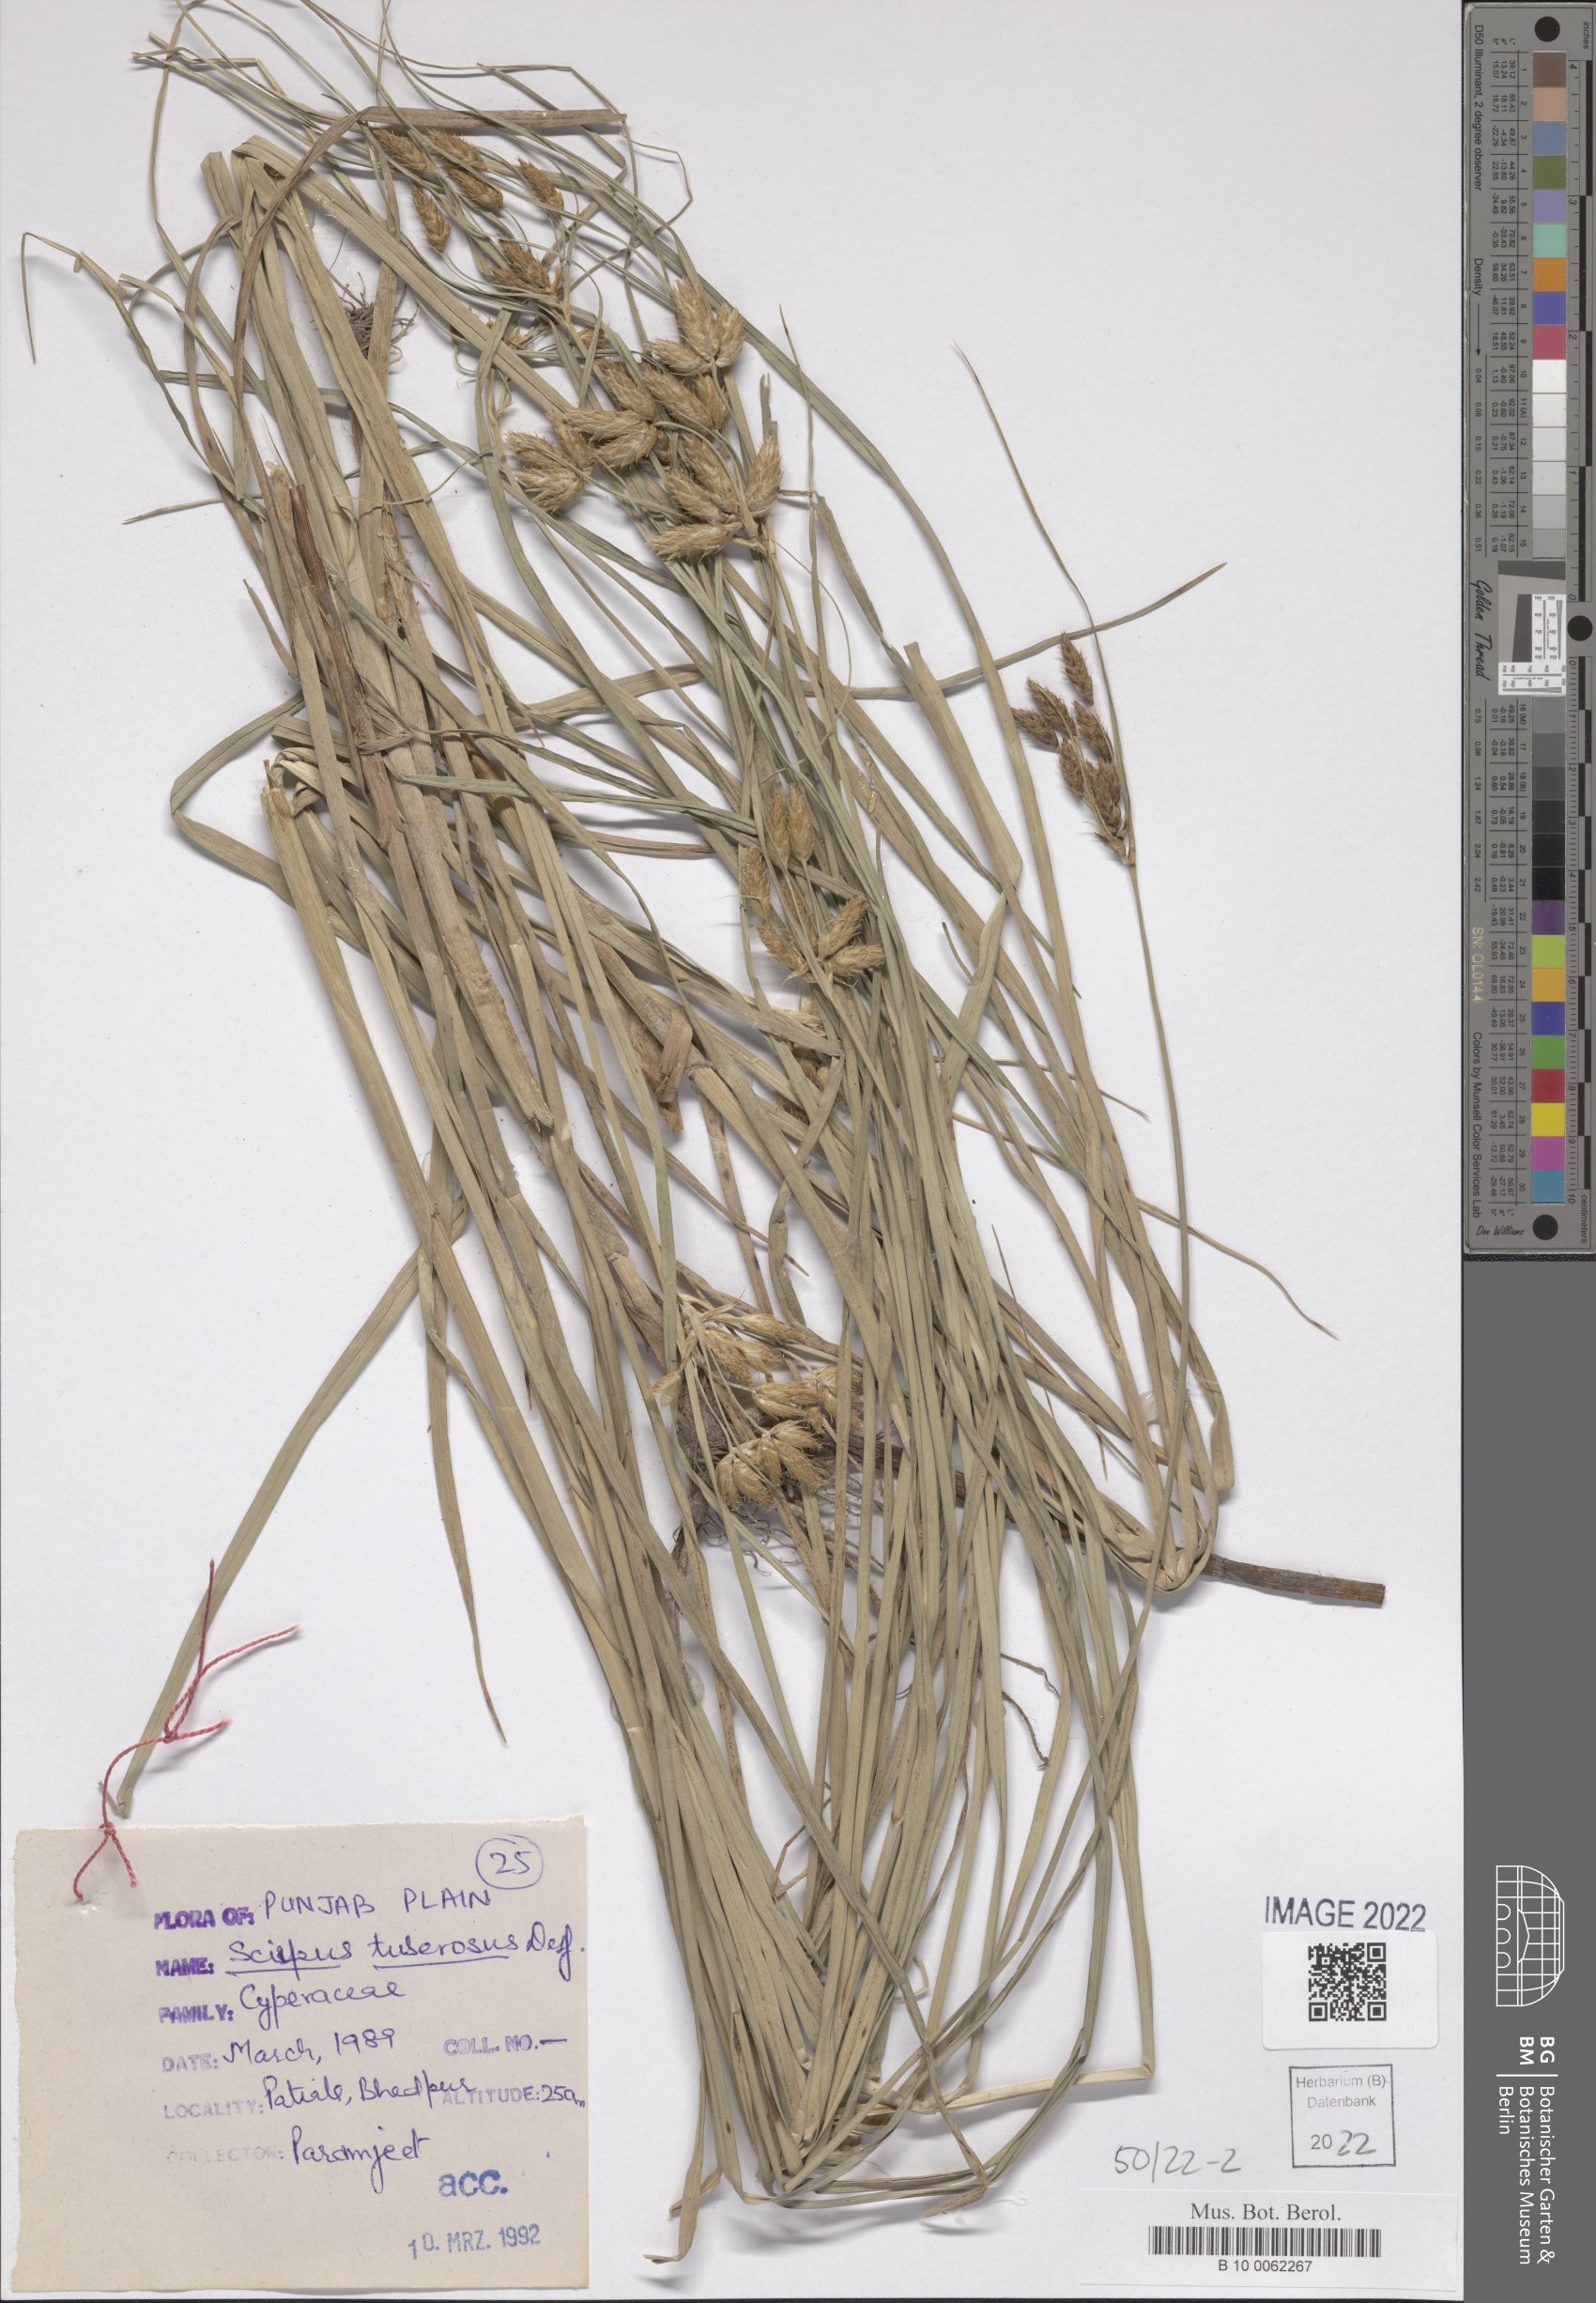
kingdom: Plantae
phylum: Tracheophyta
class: Liliopsida
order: Poales
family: Cyperaceae
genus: Bolboschoenus
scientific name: Bolboschoenus glaucus
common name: Tuberous bulrush
